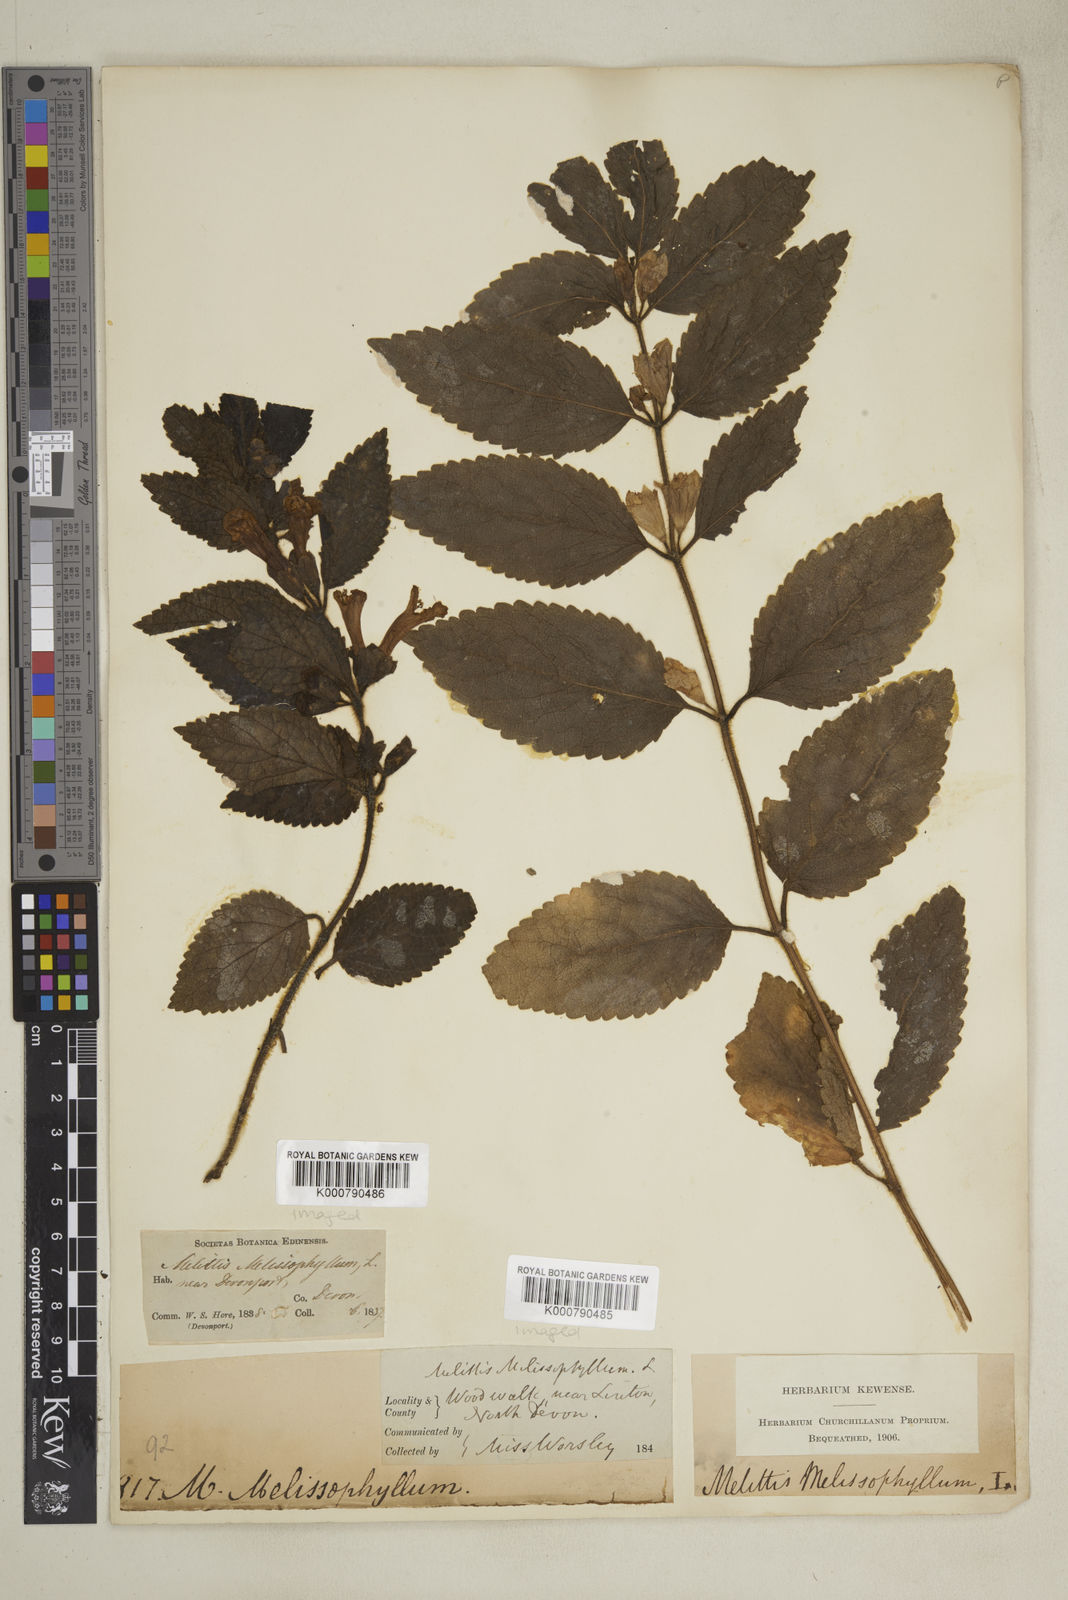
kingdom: Plantae
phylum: Tracheophyta
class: Magnoliopsida
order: Lamiales
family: Lamiaceae
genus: Melittis
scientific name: Melittis melissophyllum
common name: Bastard balm
